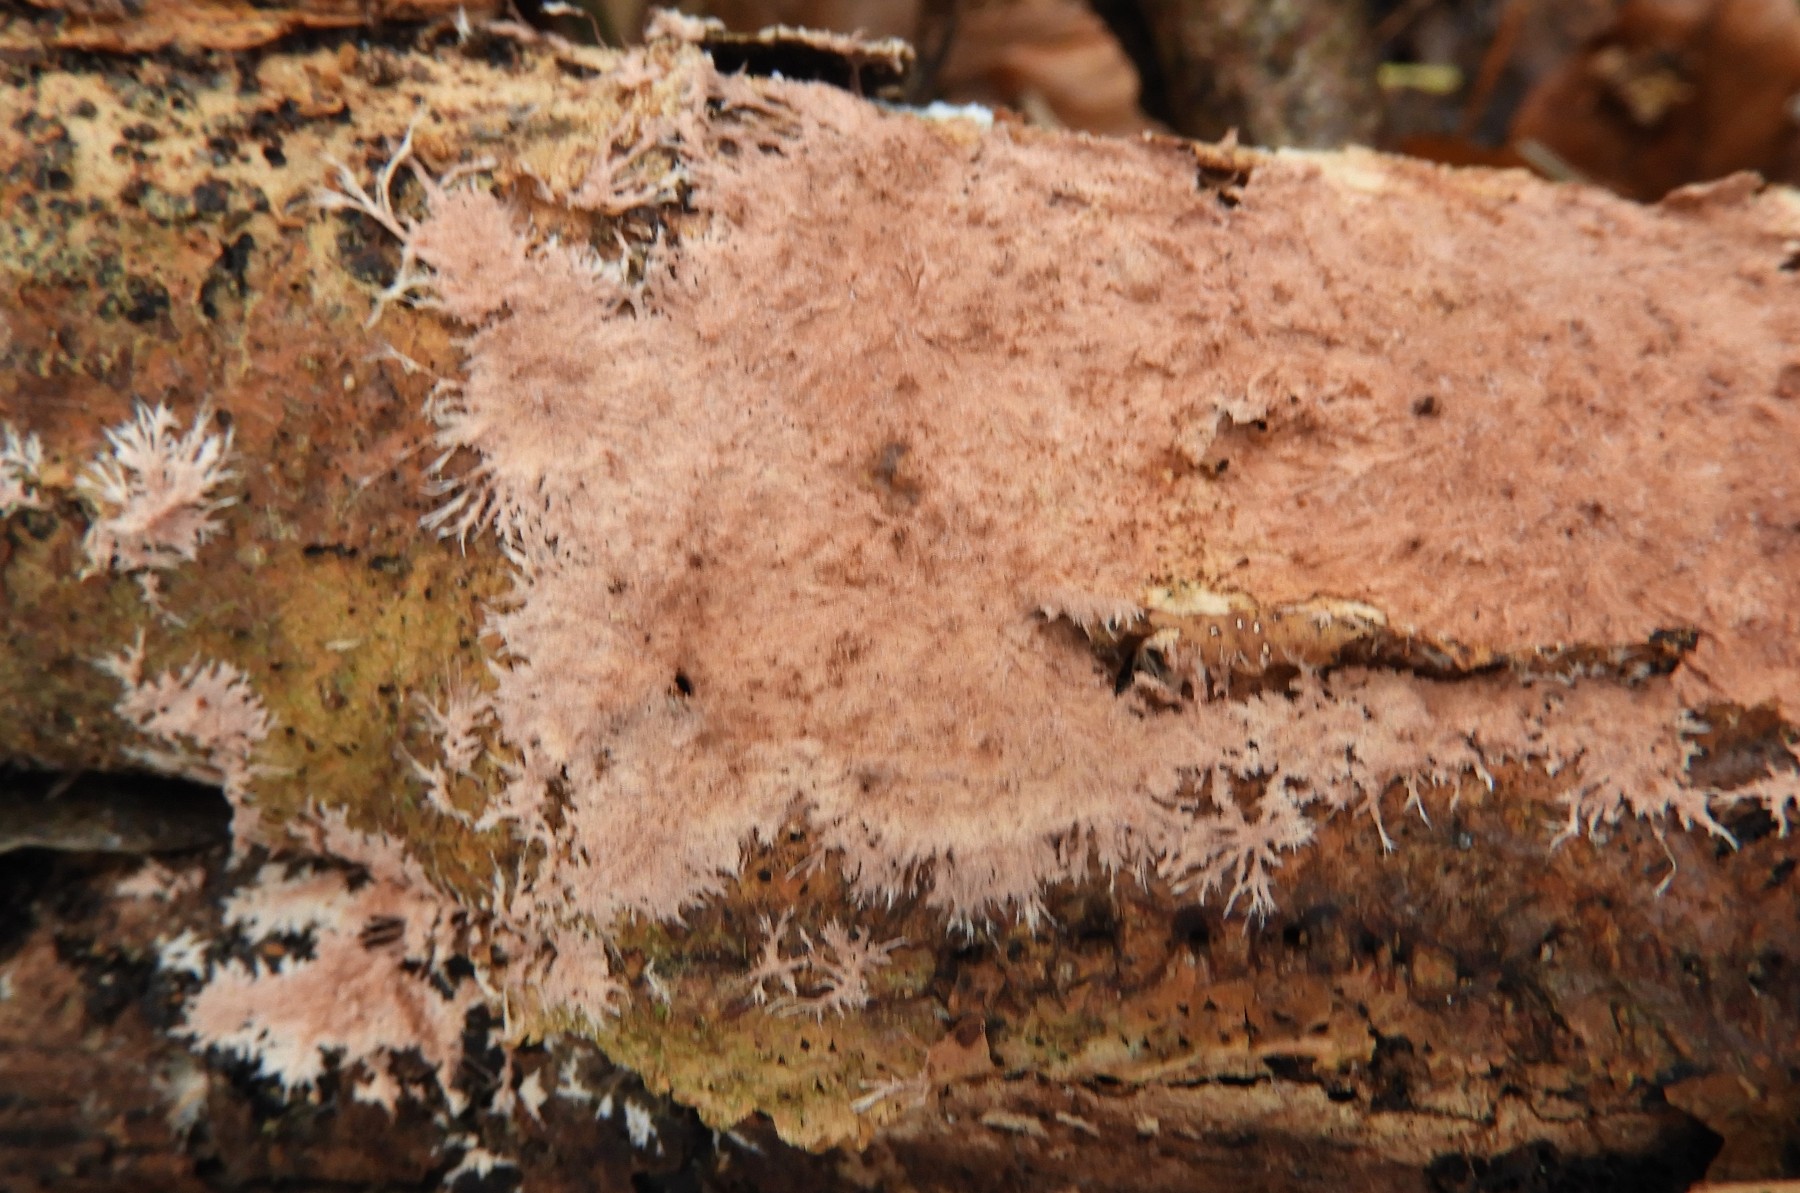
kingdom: Fungi
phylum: Basidiomycota
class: Agaricomycetes
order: Polyporales
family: Steccherinaceae
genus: Steccherinum
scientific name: Steccherinum fimbriatum
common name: trådet skønpig
